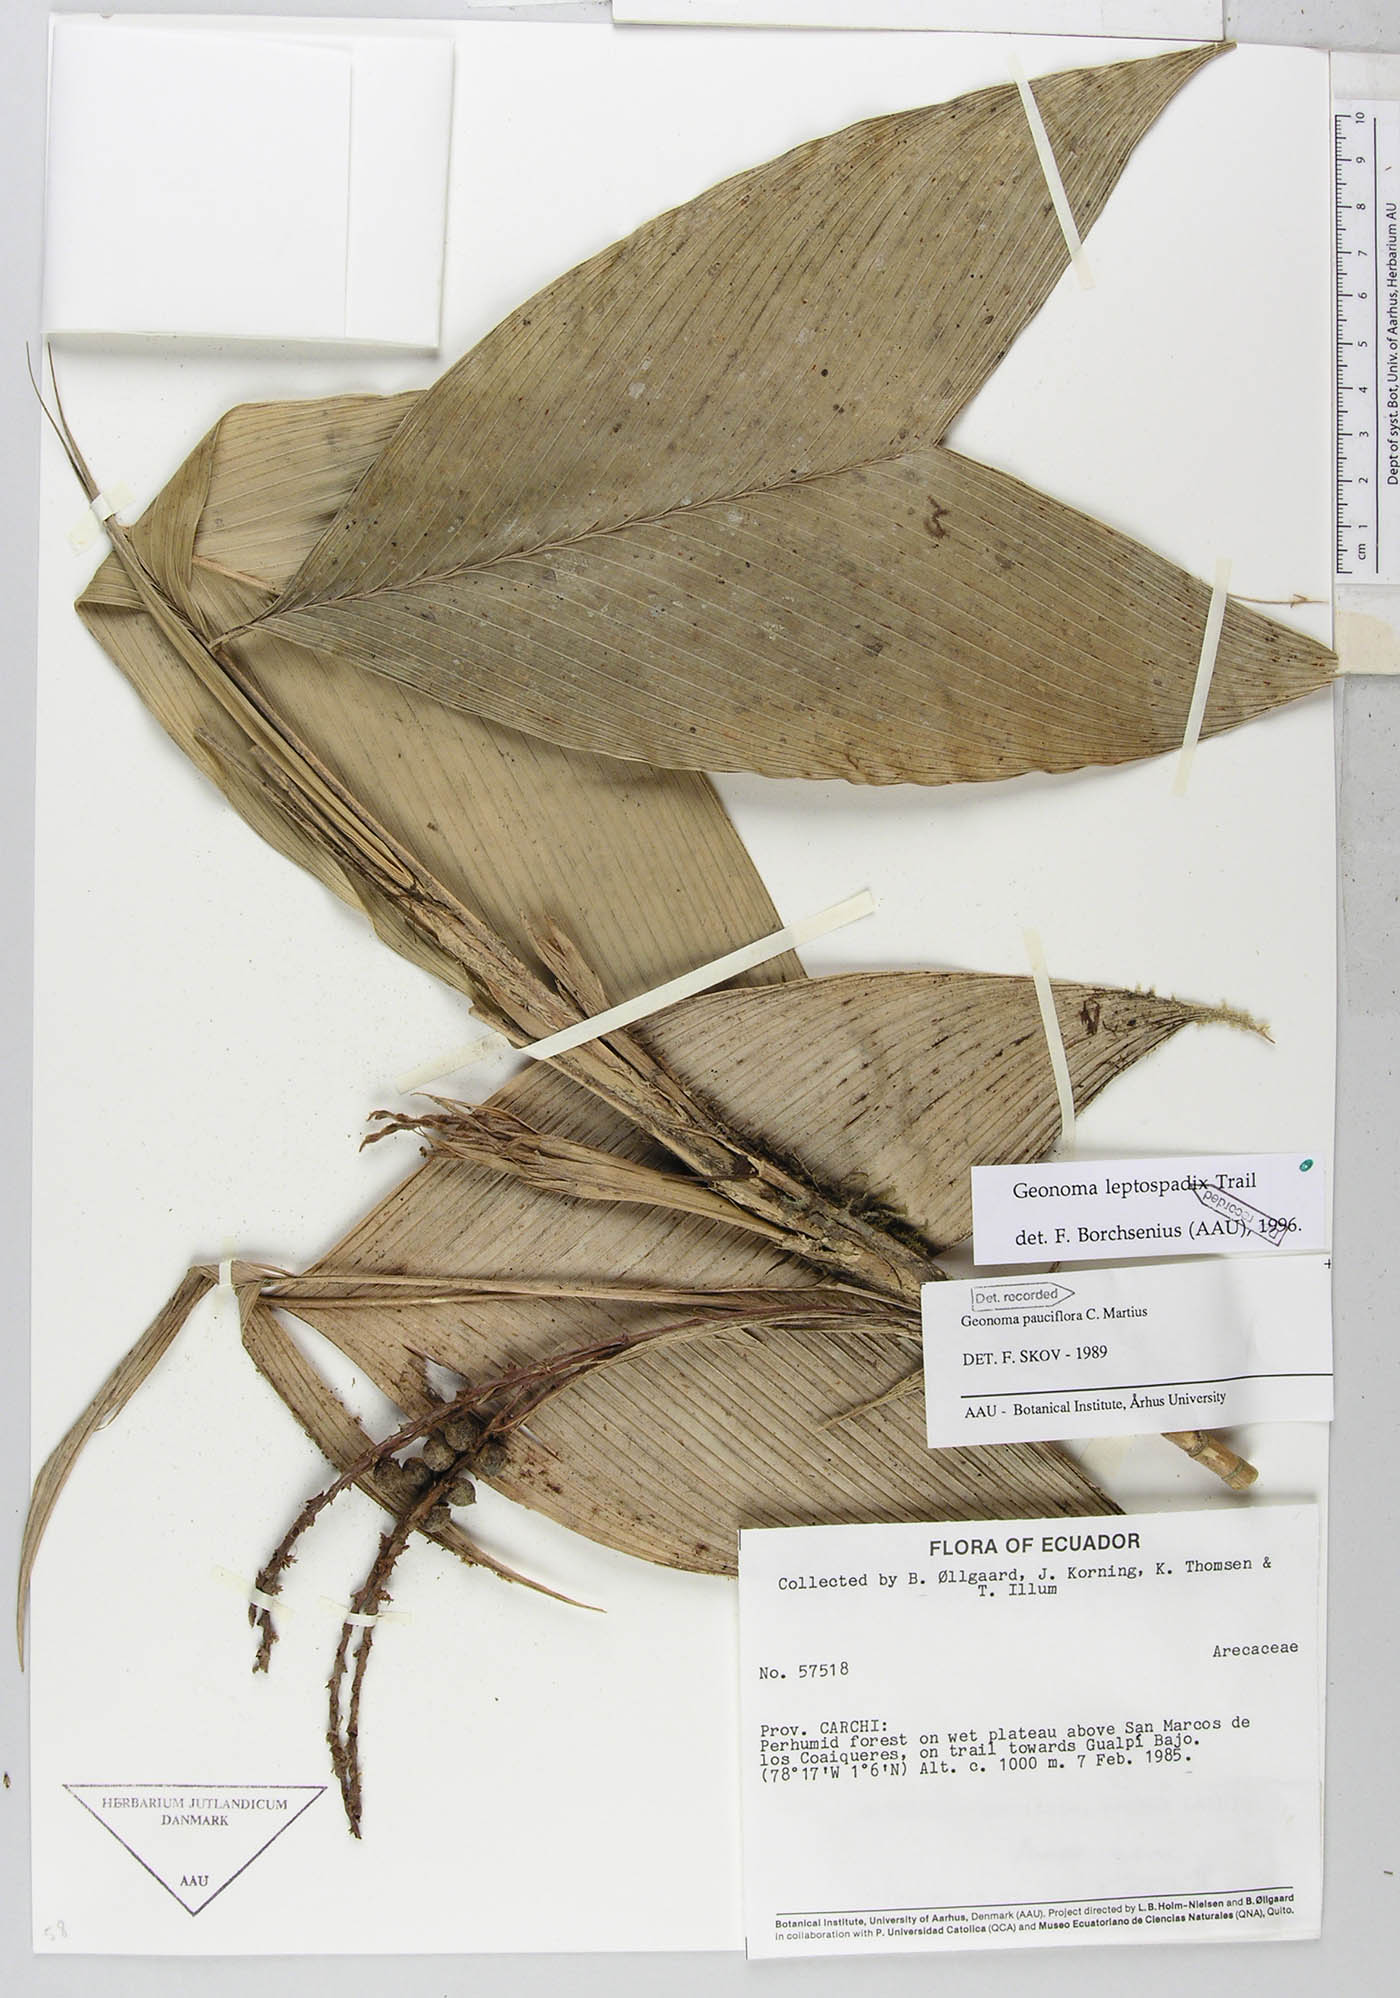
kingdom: Plantae
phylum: Tracheophyta
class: Liliopsida
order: Arecales
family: Arecaceae
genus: Geonoma
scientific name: Geonoma lanata
